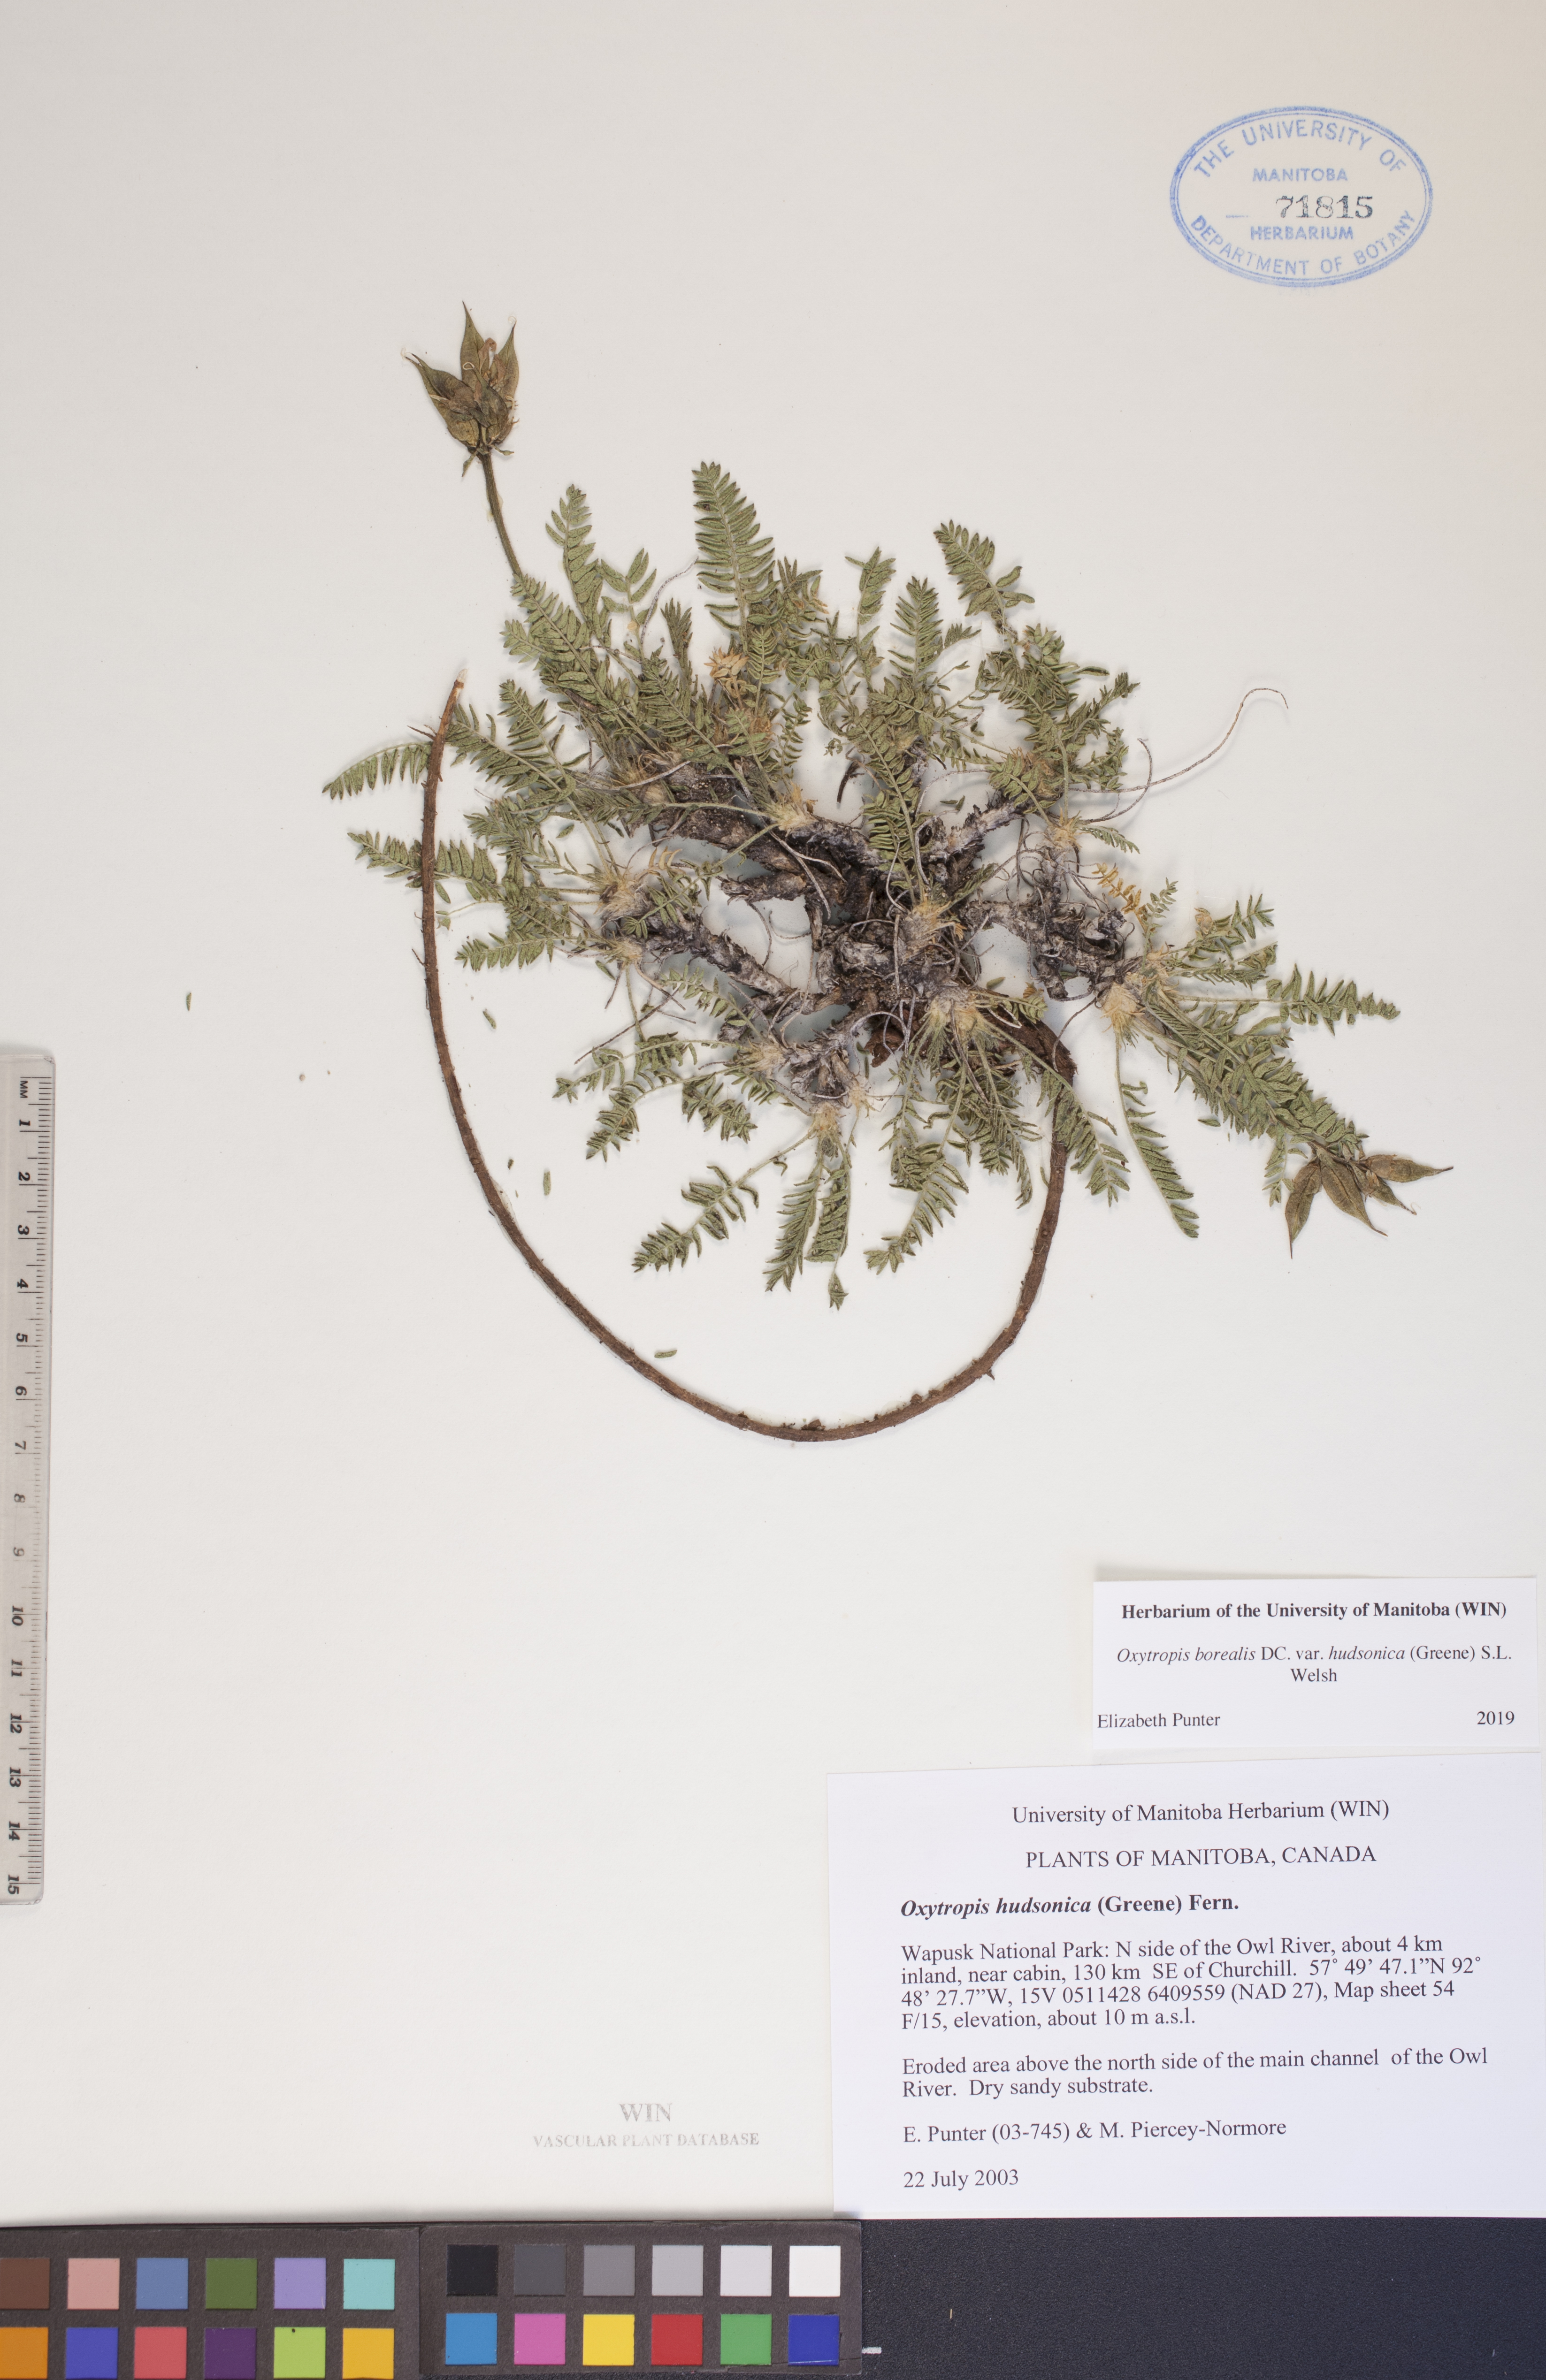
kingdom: Plantae
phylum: Tracheophyta
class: Magnoliopsida
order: Fabales
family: Fabaceae
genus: Oxytropis
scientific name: Oxytropis hudsonica
